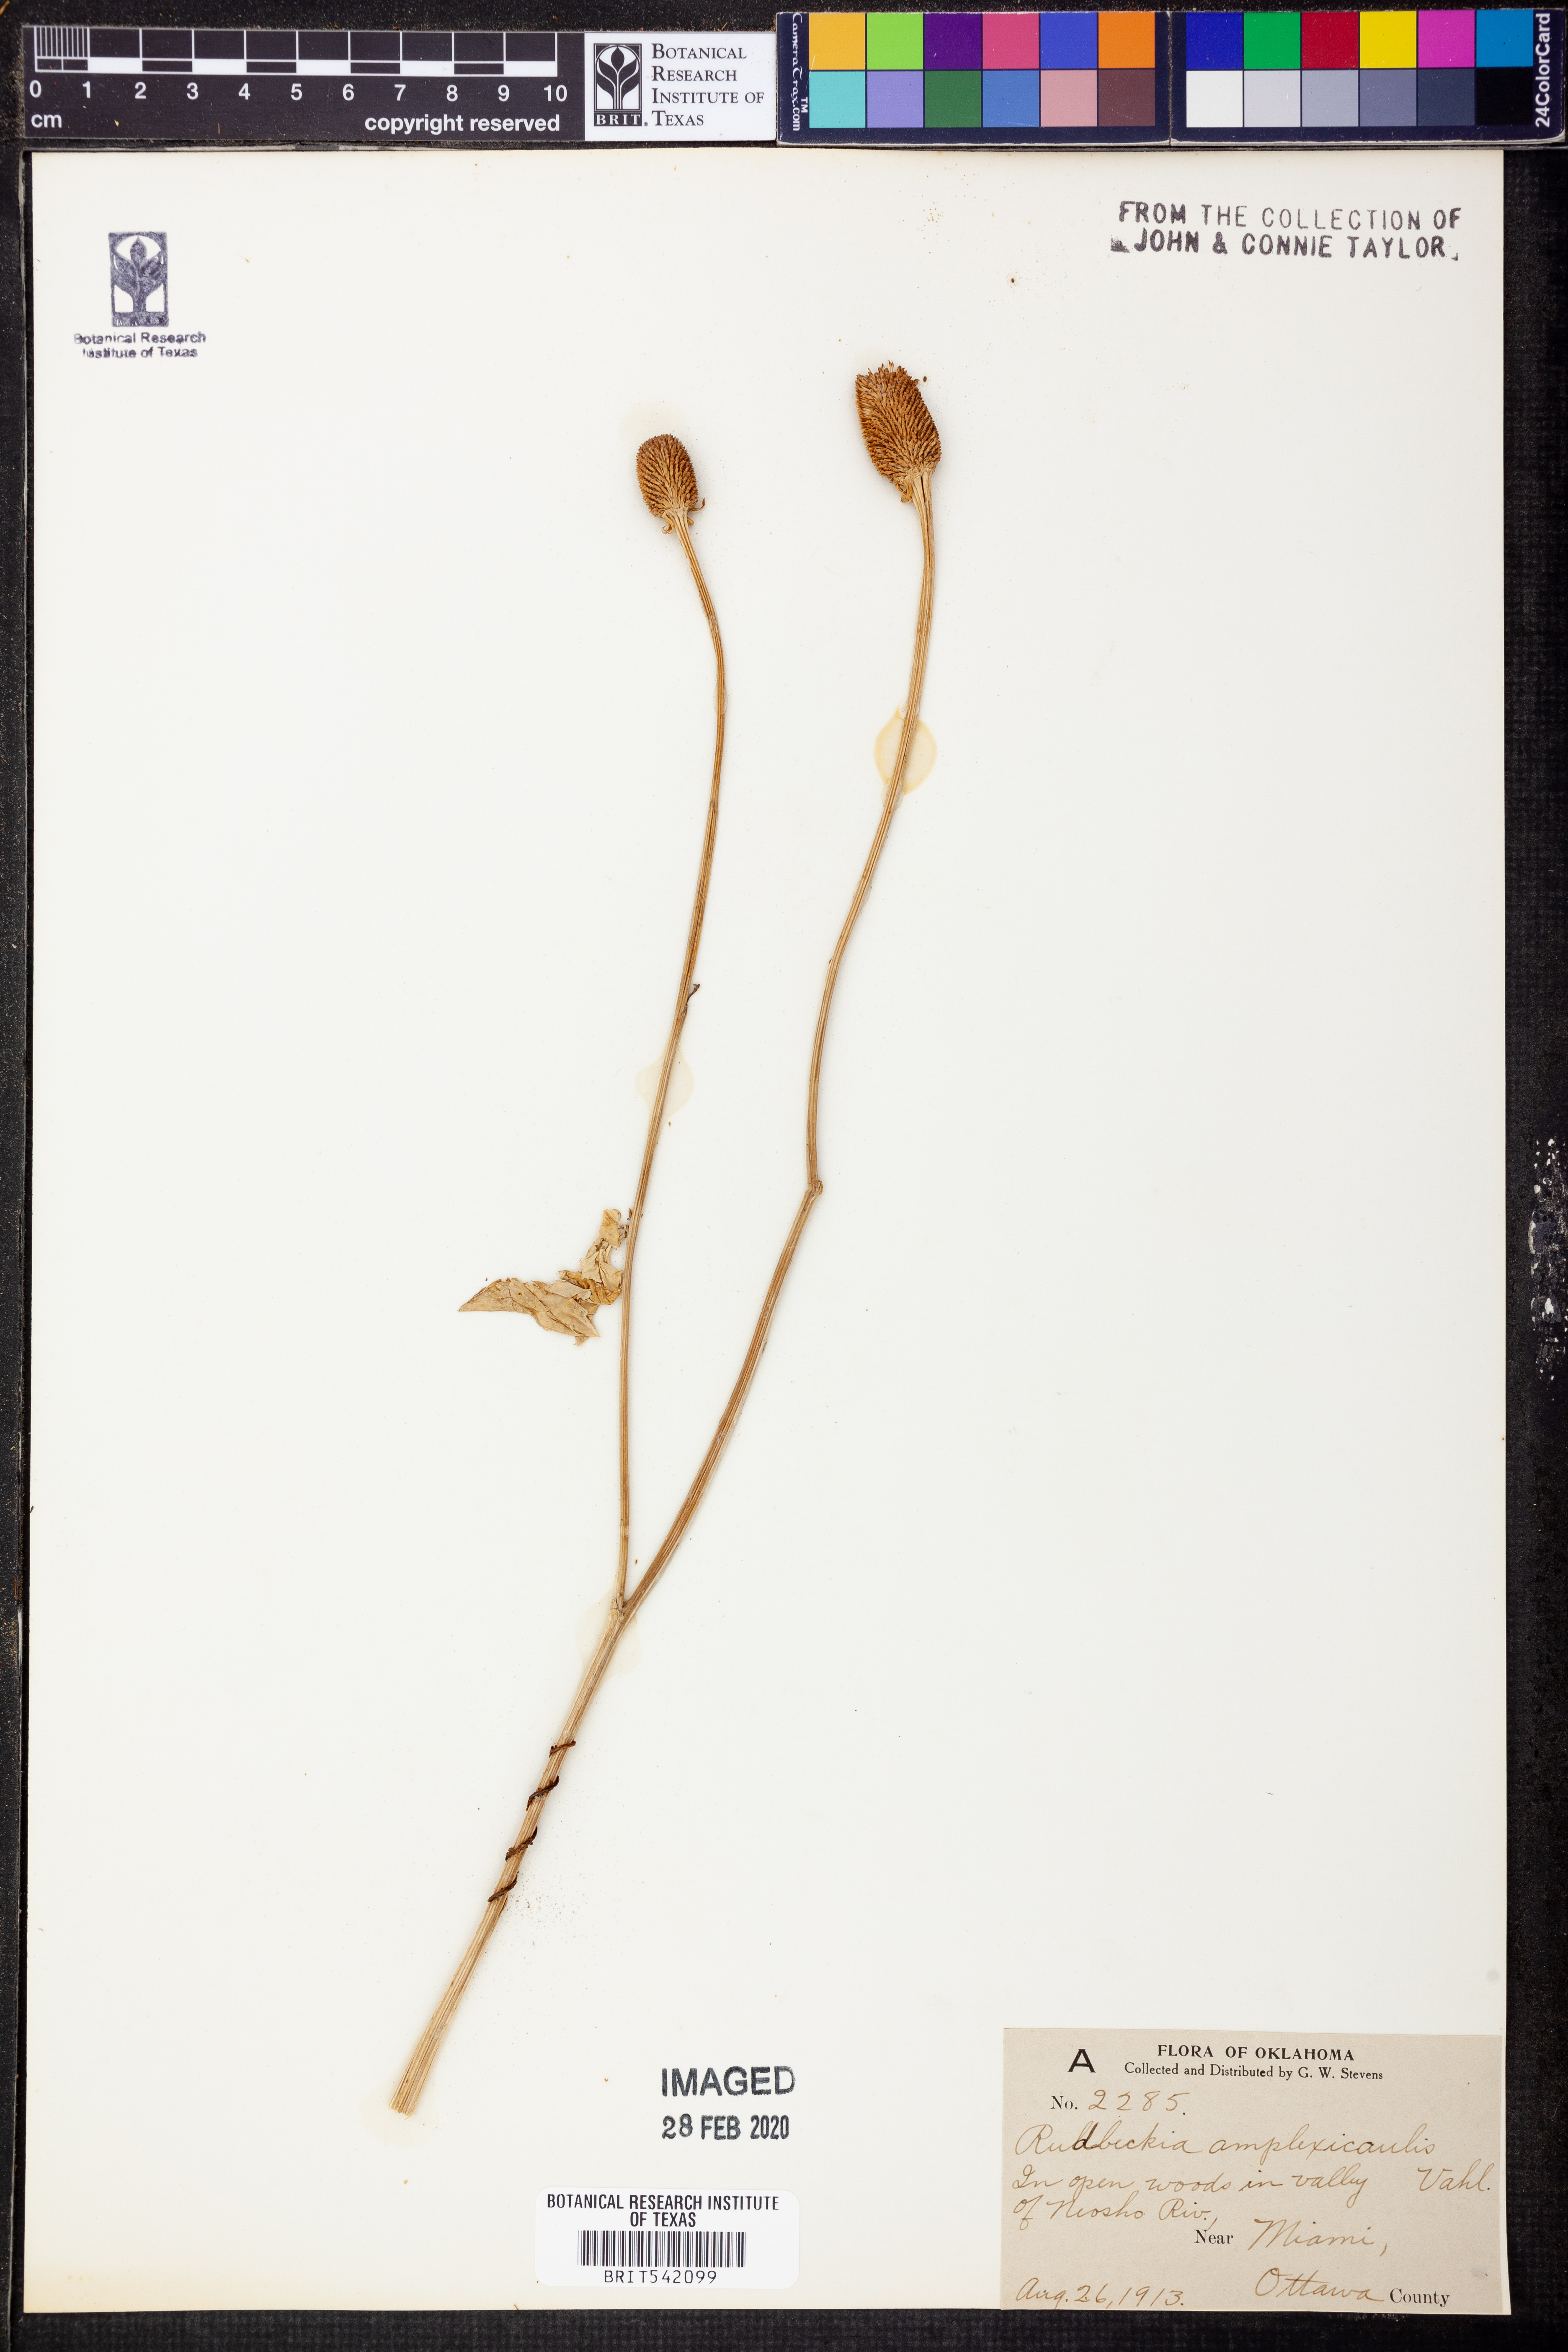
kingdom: Plantae
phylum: Tracheophyta
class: Magnoliopsida
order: Asterales
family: Asteraceae
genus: Rudbeckia
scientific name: Rudbeckia amplexicaulis
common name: Clasping-leaf coneflower
